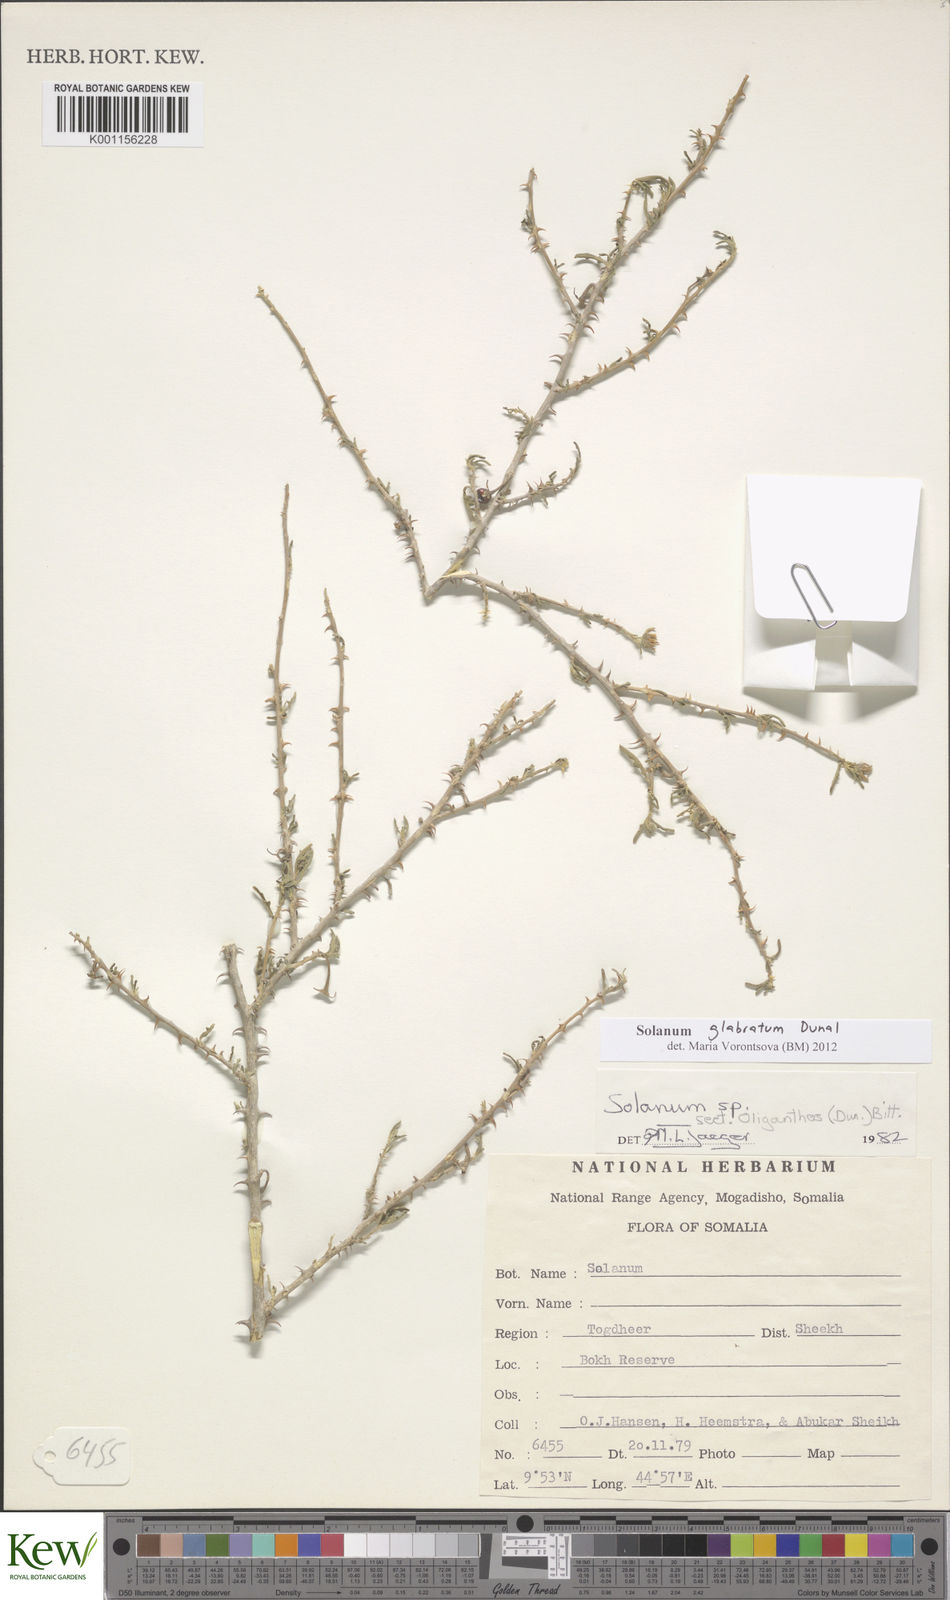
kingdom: Plantae
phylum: Tracheophyta
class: Magnoliopsida
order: Solanales
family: Solanaceae
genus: Solanum
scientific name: Solanum glabratum
